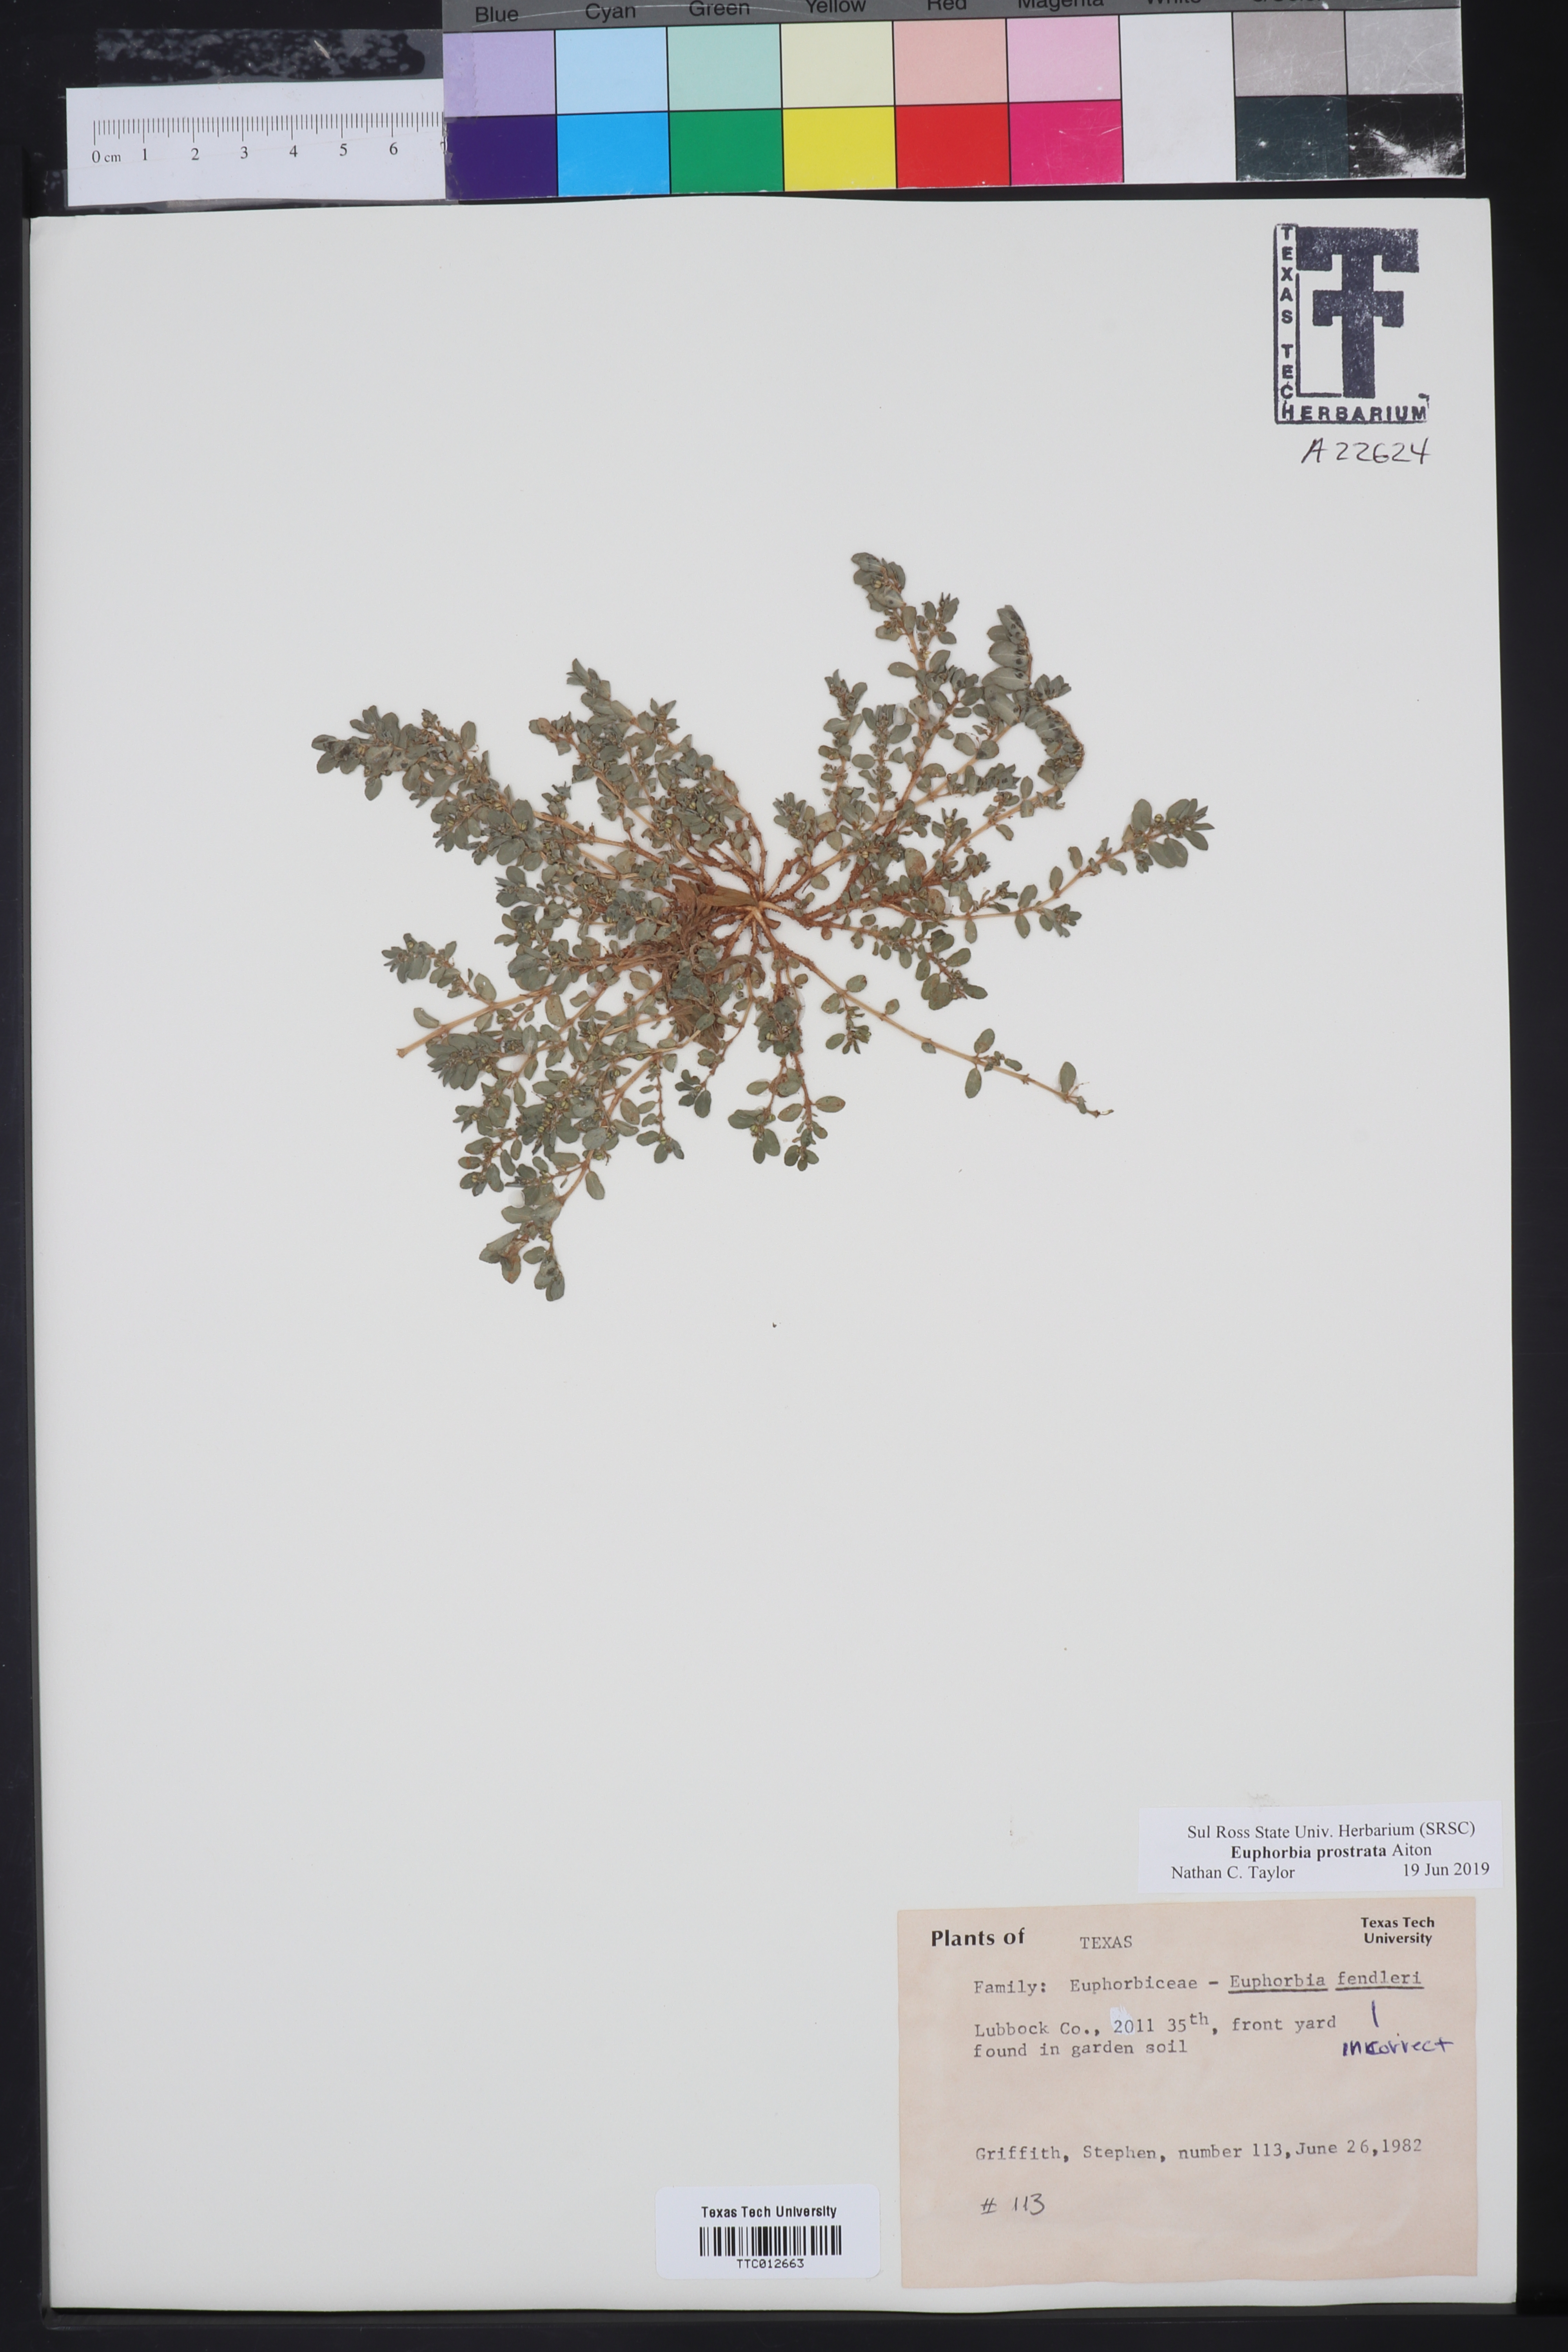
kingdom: Plantae
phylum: Tracheophyta
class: Magnoliopsida
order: Malpighiales
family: Euphorbiaceae
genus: Euphorbia
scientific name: Euphorbia prostrata
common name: Prostrate sandmat
